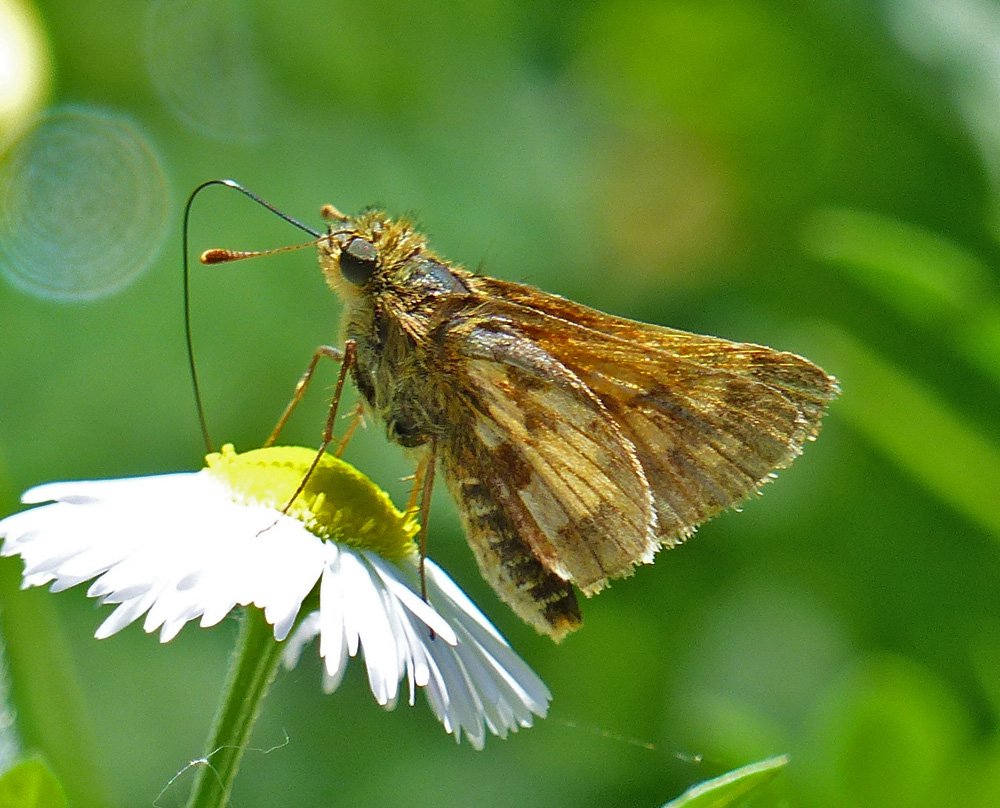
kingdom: Animalia
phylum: Arthropoda
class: Insecta
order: Lepidoptera
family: Hesperiidae
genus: Polites
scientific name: Polites coras
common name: Peck's Skipper
